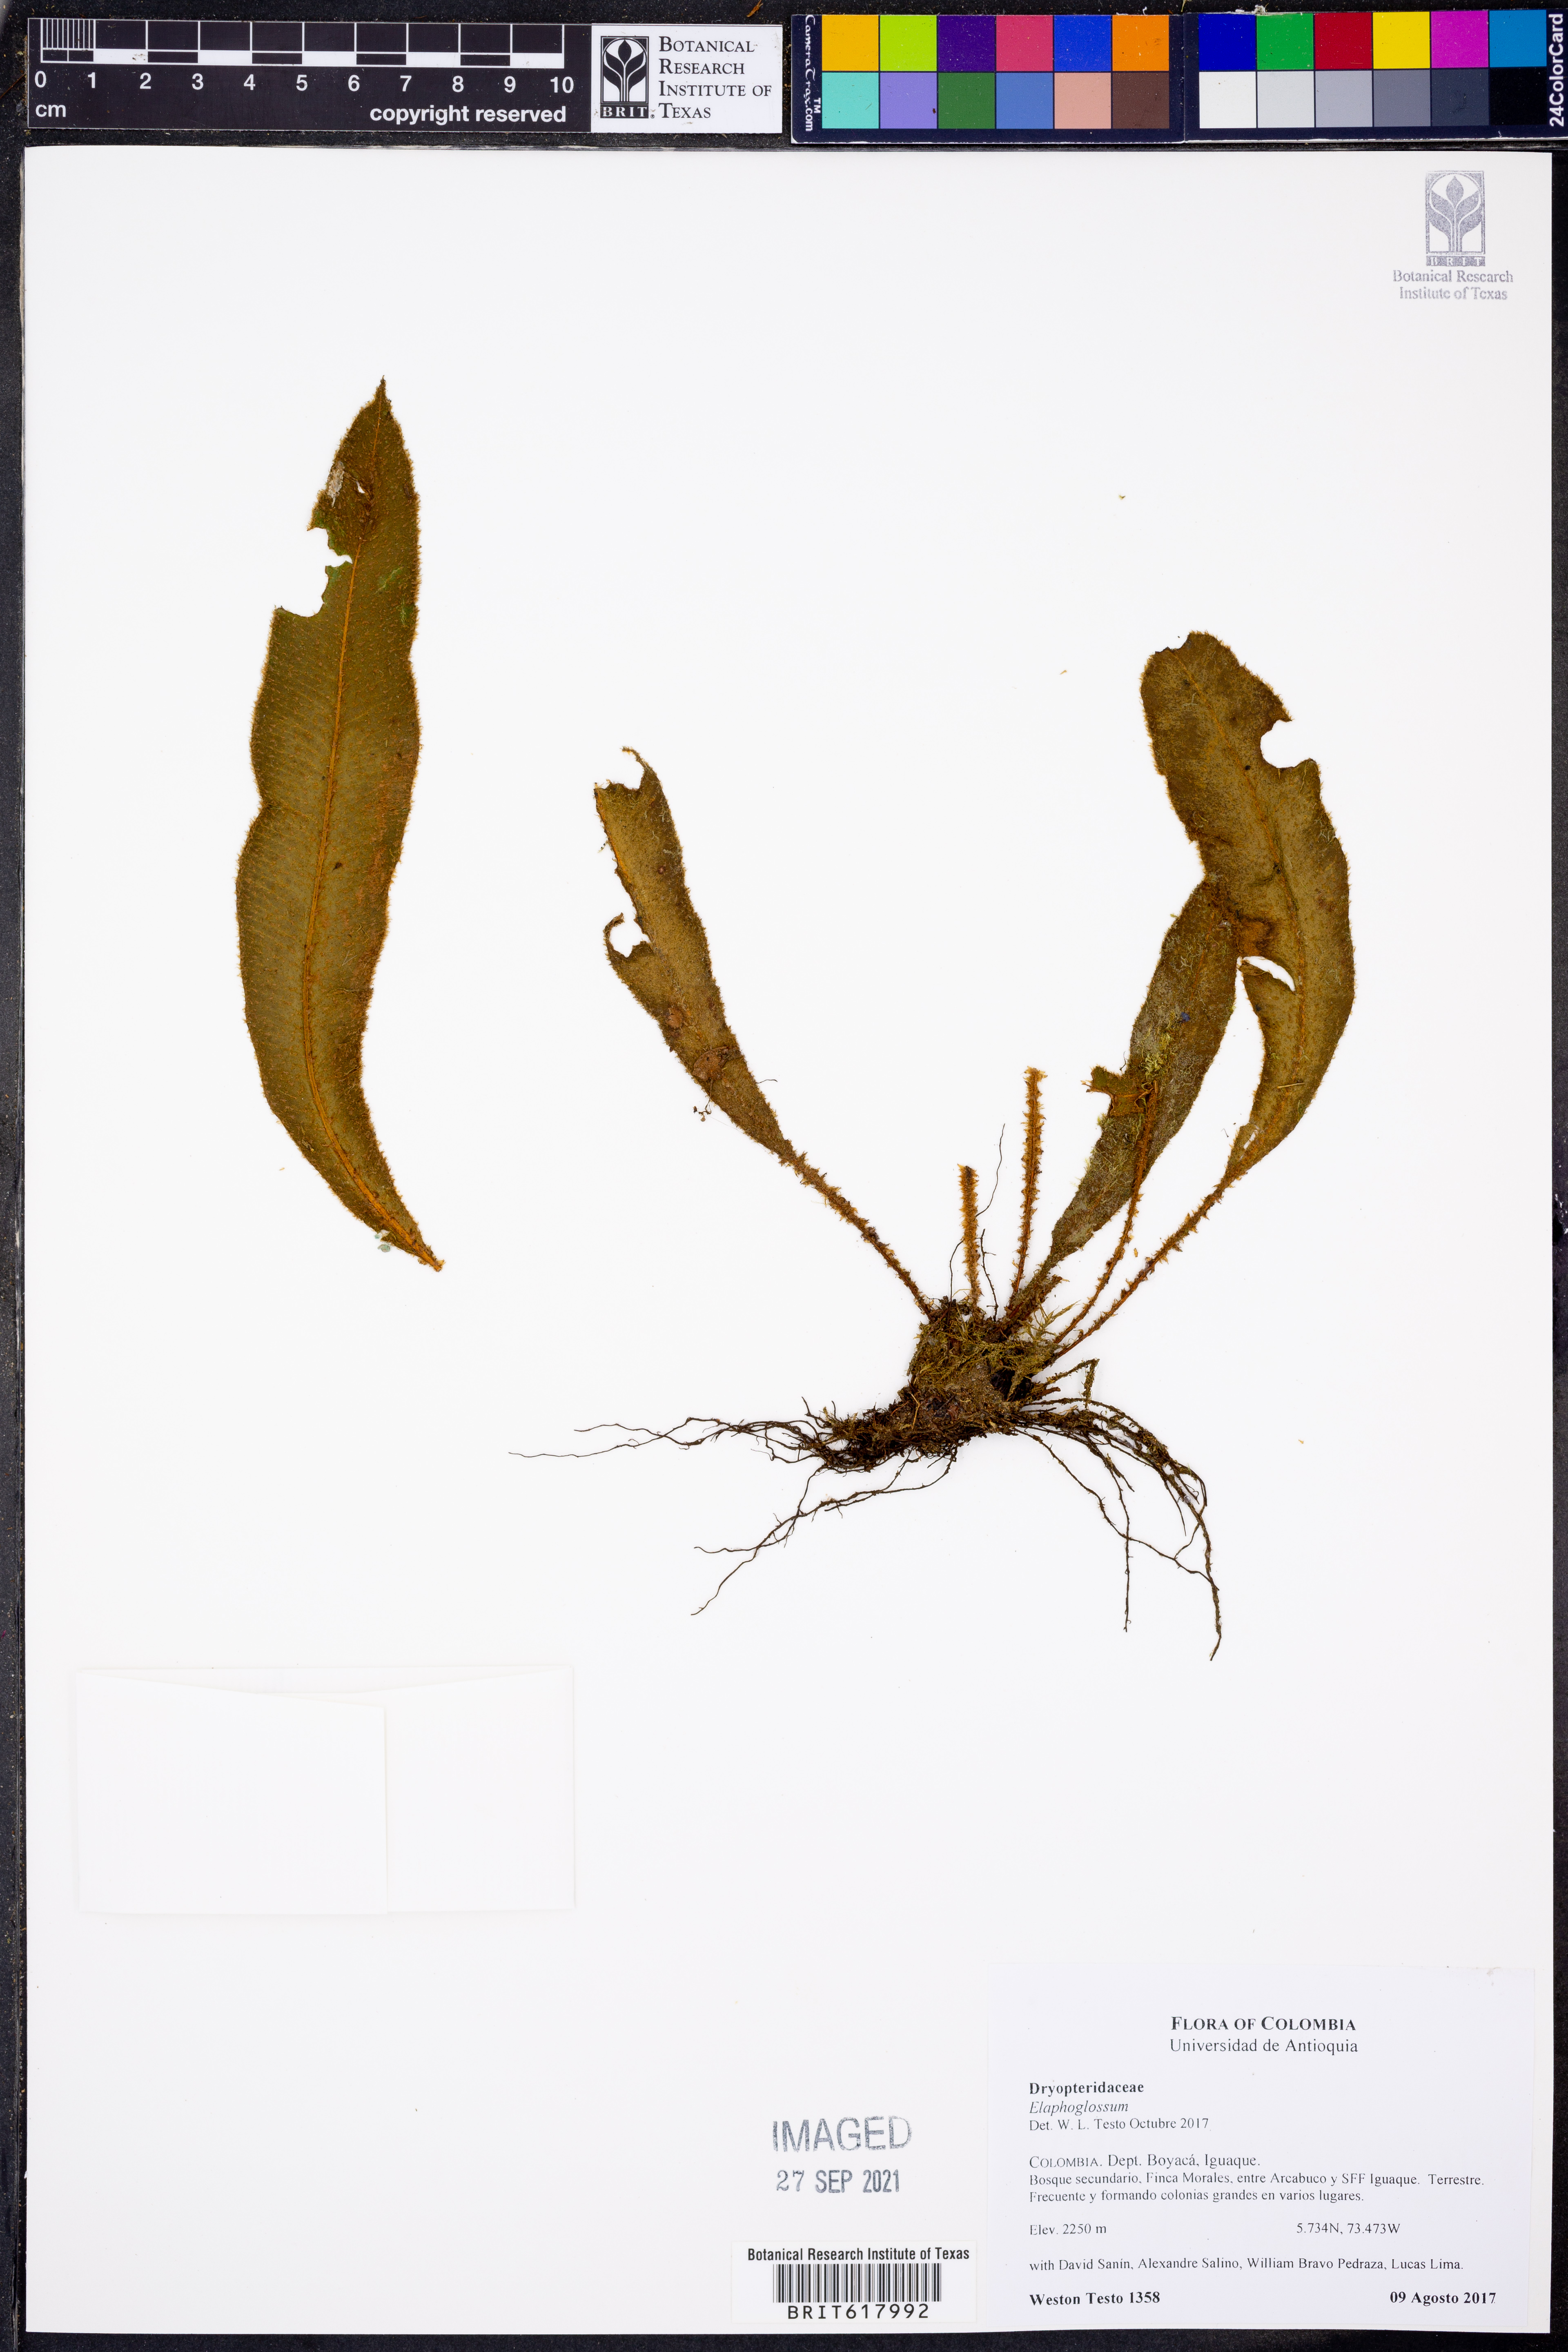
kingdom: Plantae
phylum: Tracheophyta
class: Polypodiopsida
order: Polypodiales
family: Dryopteridaceae
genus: Elaphoglossum
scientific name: Elaphoglossum
